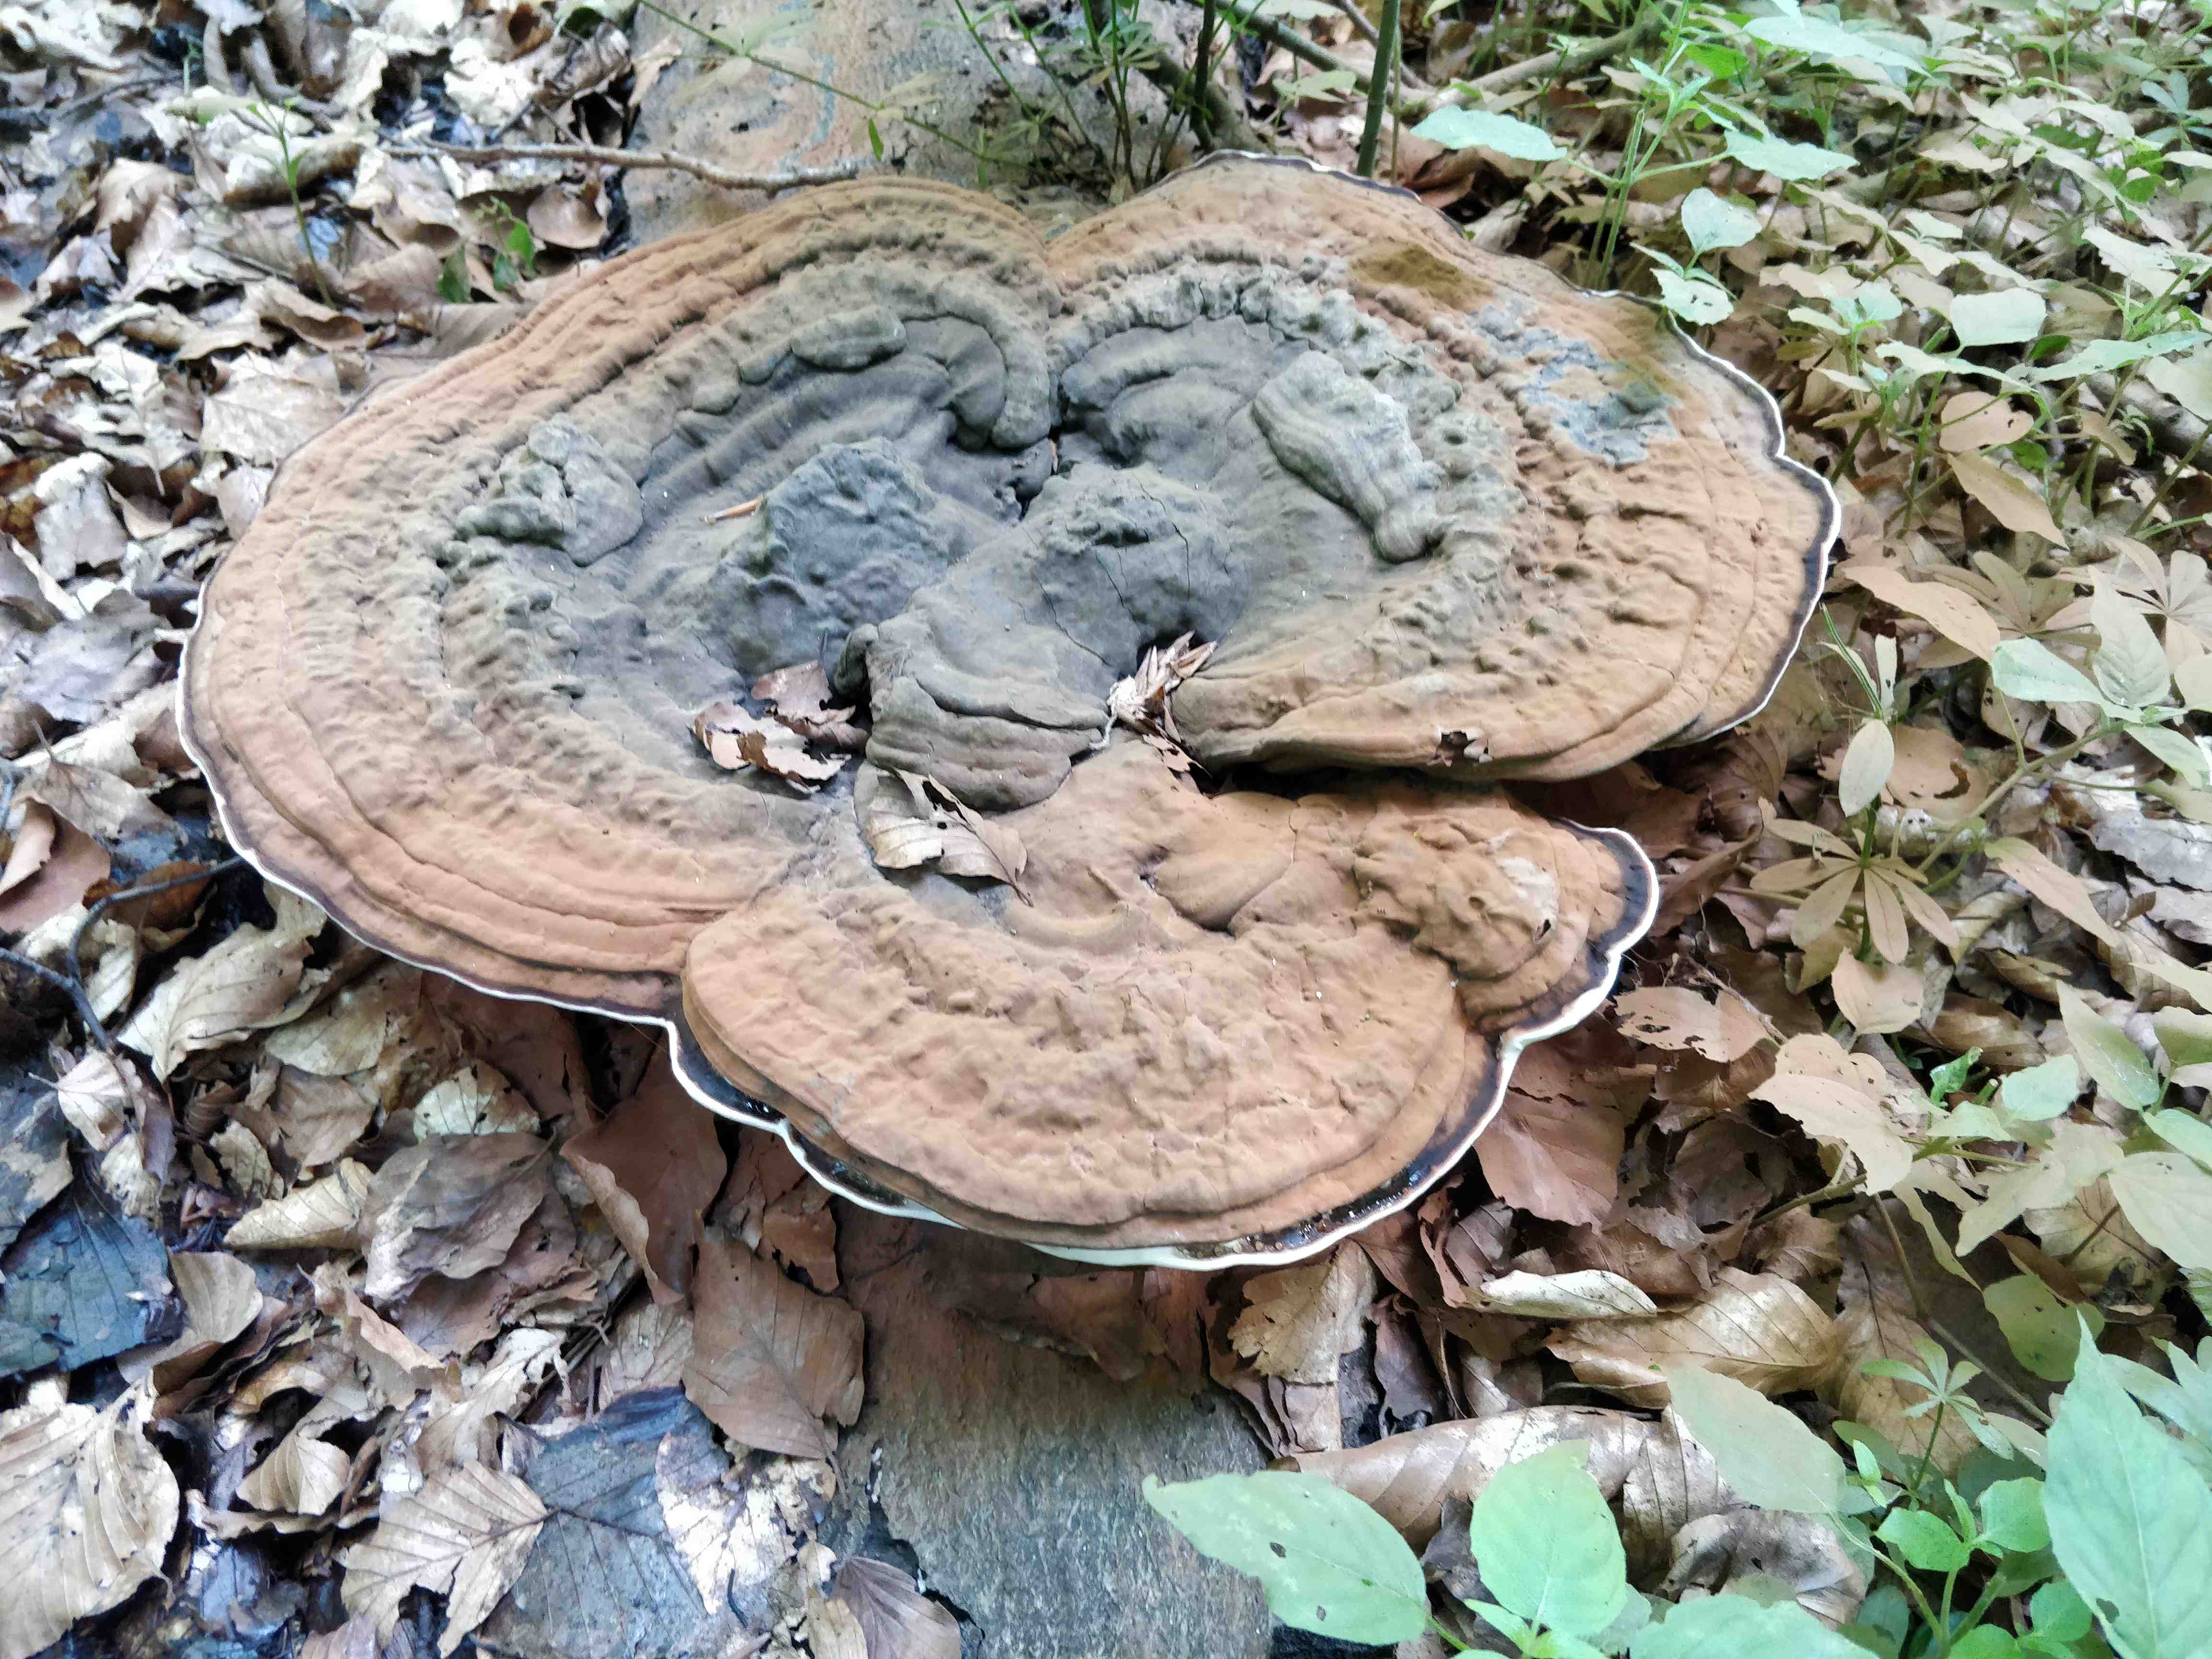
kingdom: Fungi
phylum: Basidiomycota
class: Agaricomycetes
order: Polyporales
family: Polyporaceae
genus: Ganoderma
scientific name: Ganoderma applanatum
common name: flad lakporesvamp
